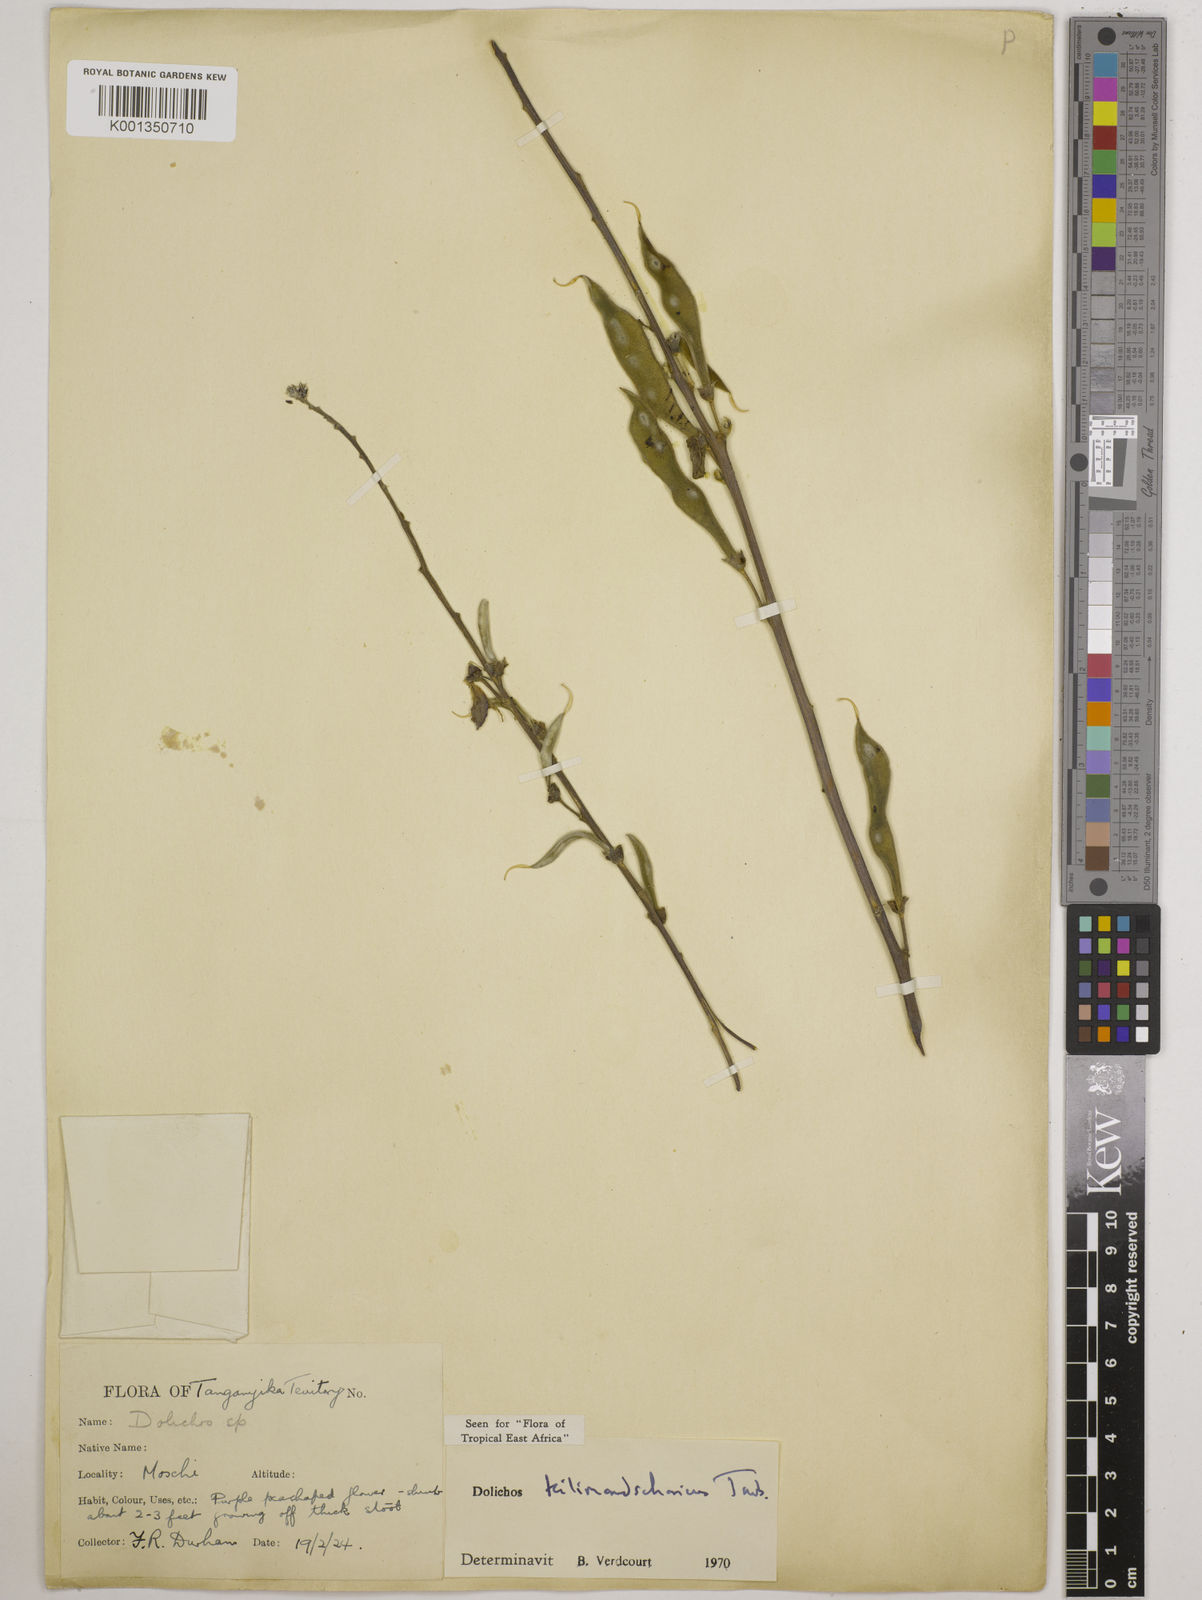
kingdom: Plantae
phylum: Tracheophyta
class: Magnoliopsida
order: Fabales
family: Fabaceae
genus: Dolichos
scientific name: Dolichos kilimandscharicus
